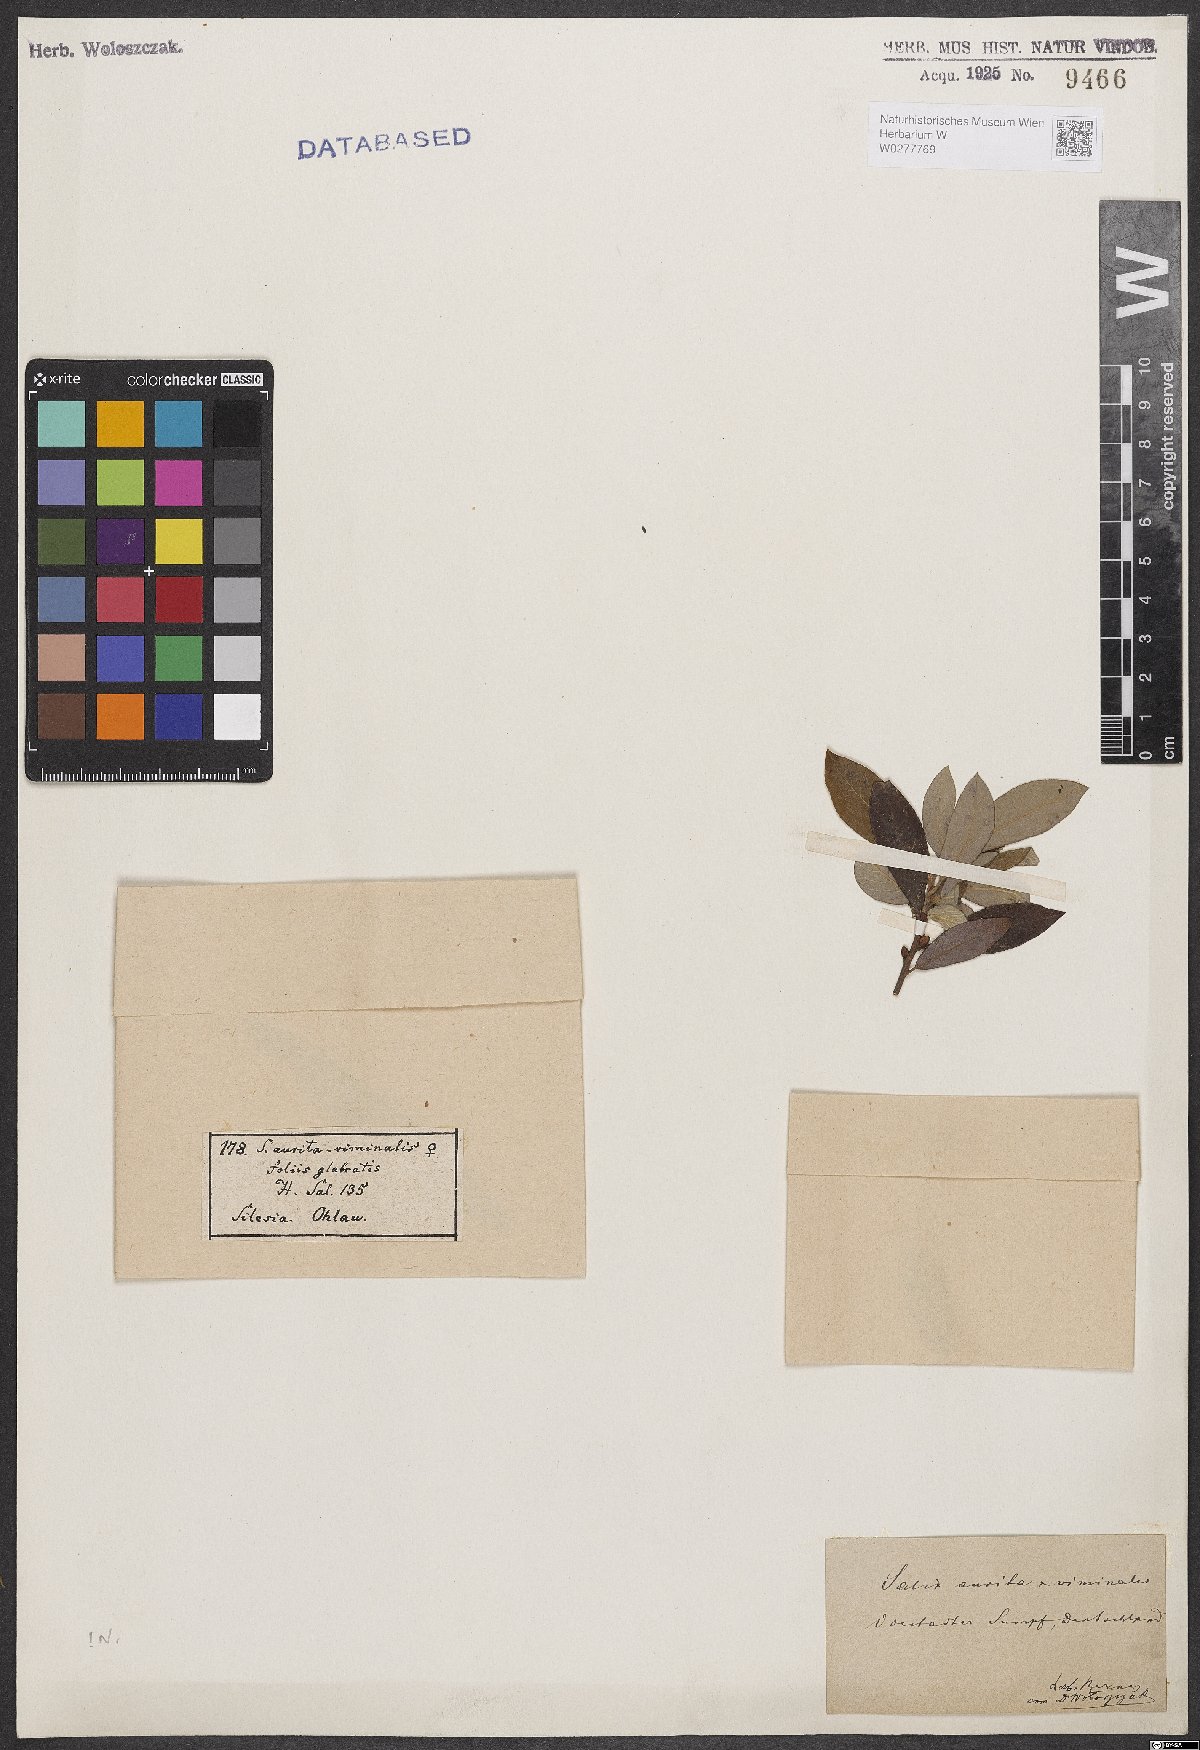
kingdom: Plantae
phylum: Tracheophyta
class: Magnoliopsida
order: Malpighiales
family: Salicaceae
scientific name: Salicaceae
